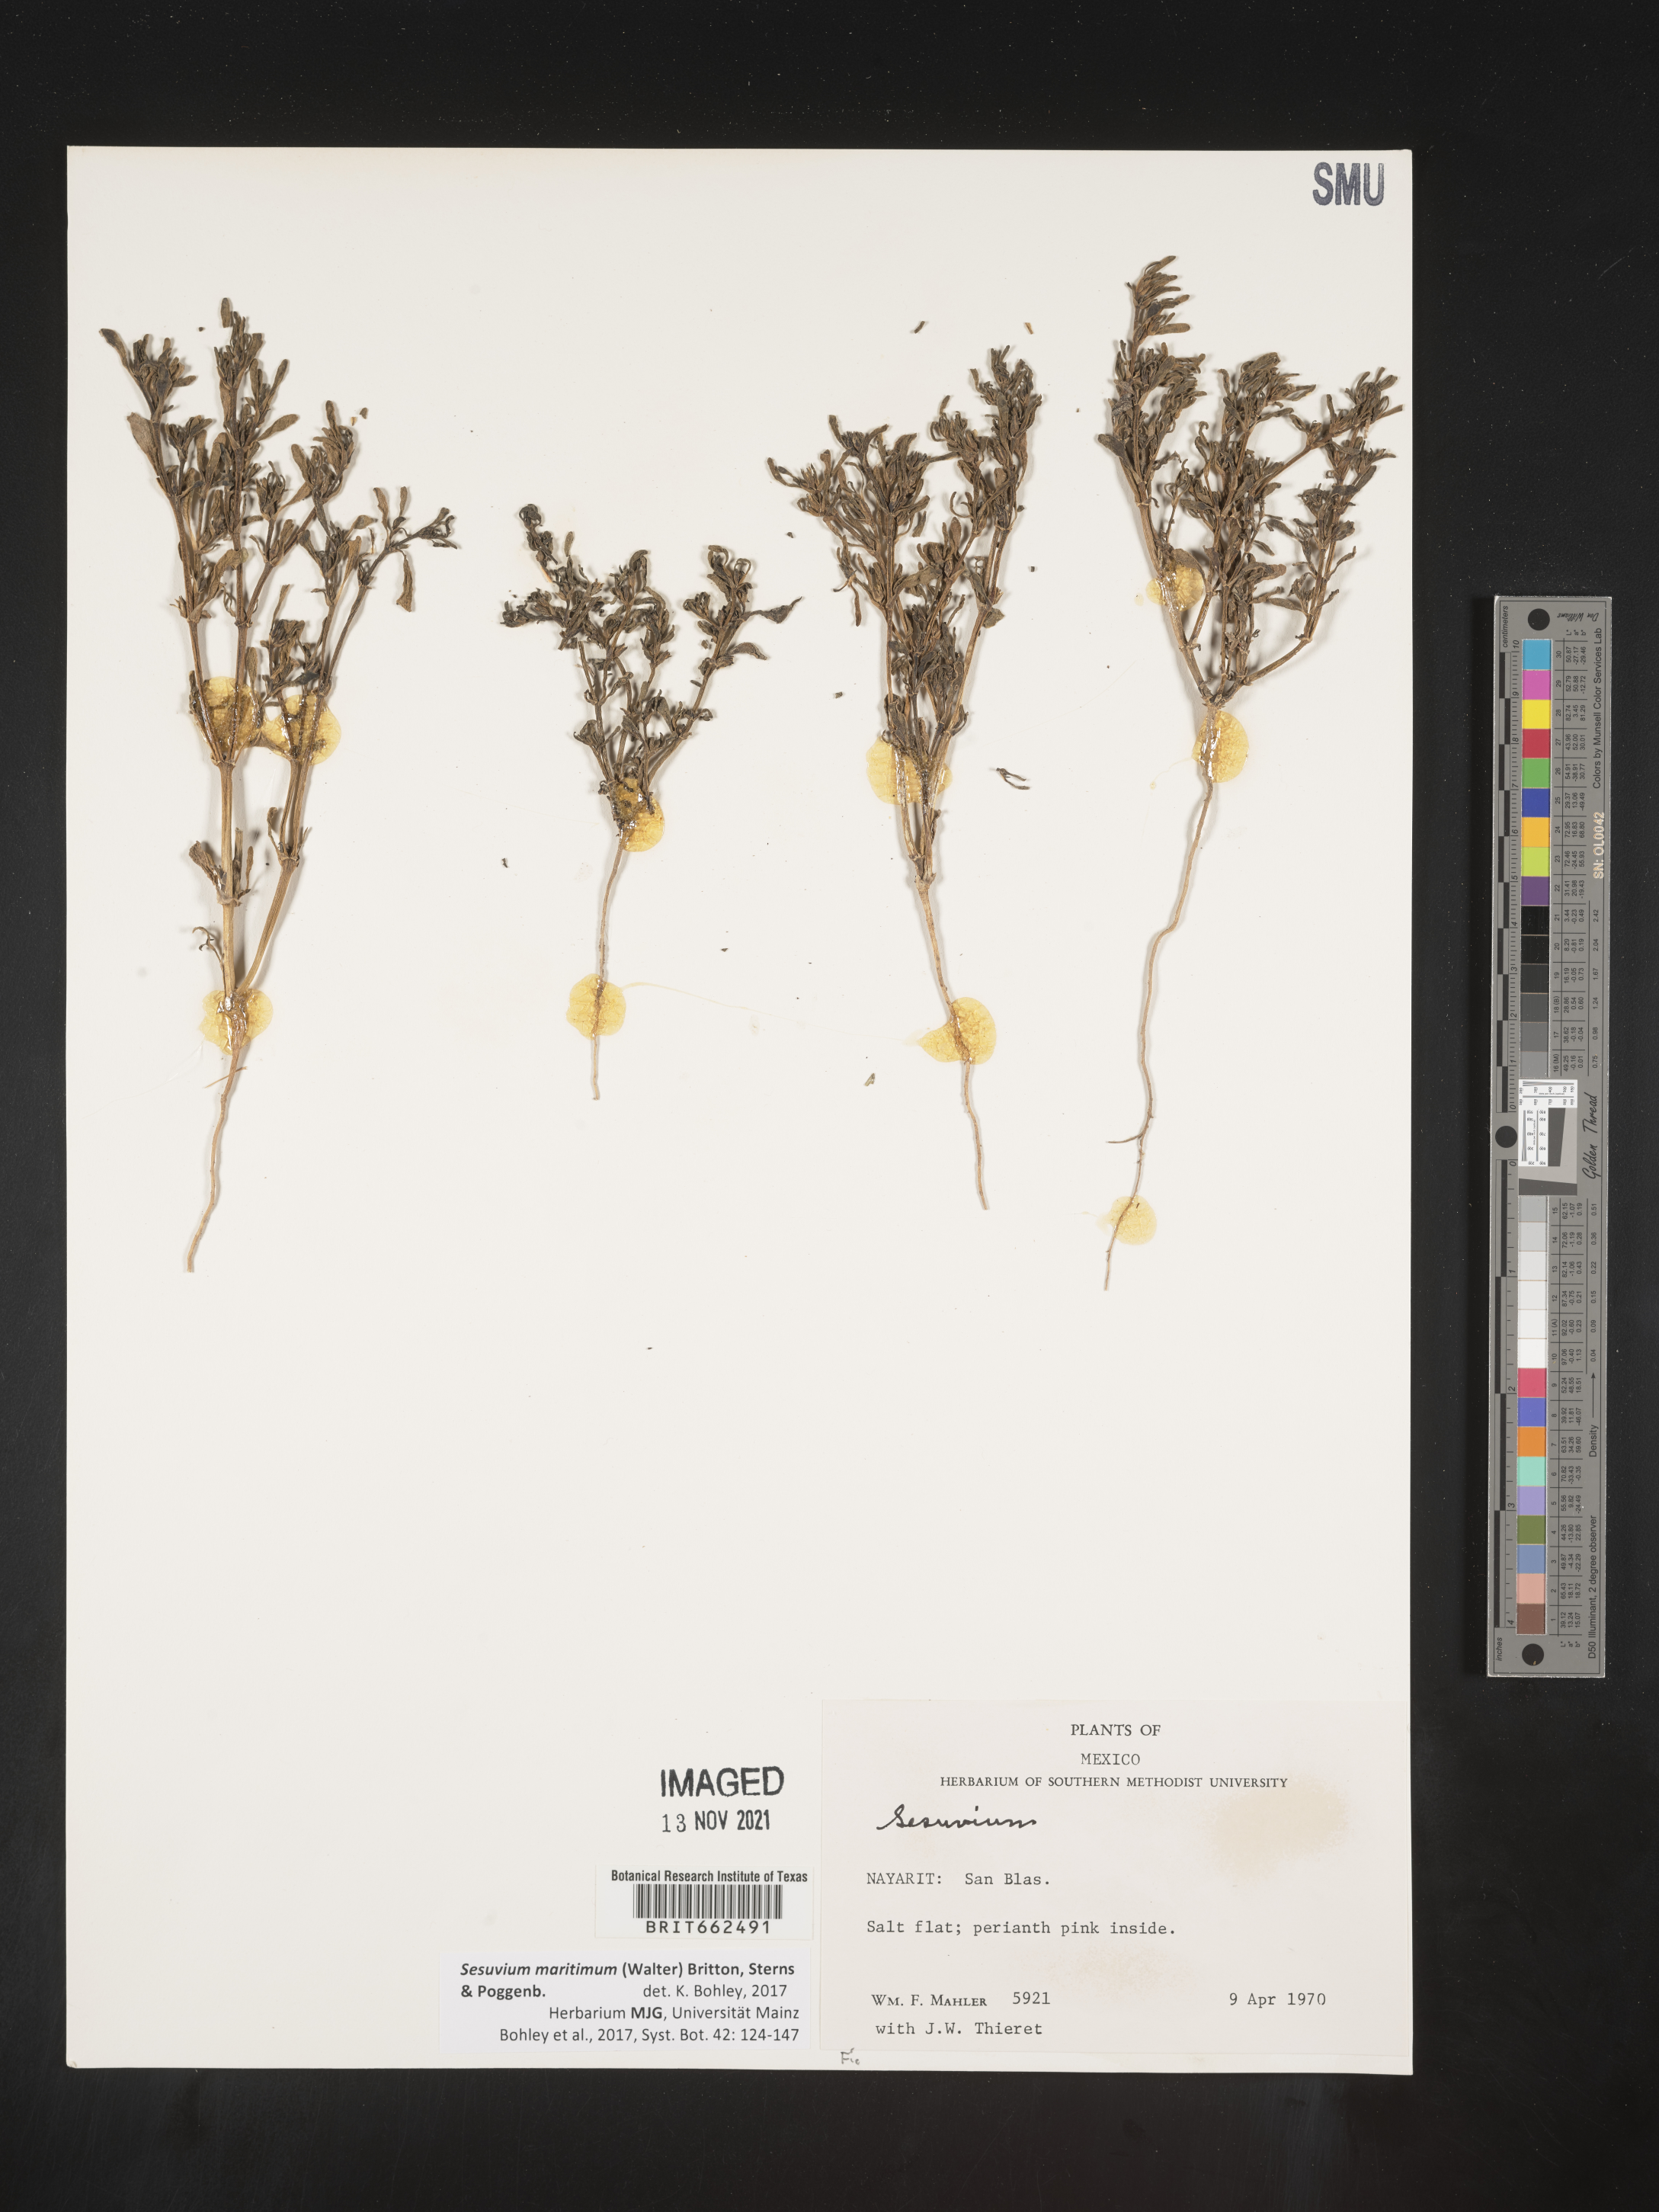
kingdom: Plantae
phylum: Tracheophyta
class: Magnoliopsida
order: Caryophyllales
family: Aizoaceae
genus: Sesuvium
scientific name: Sesuvium
